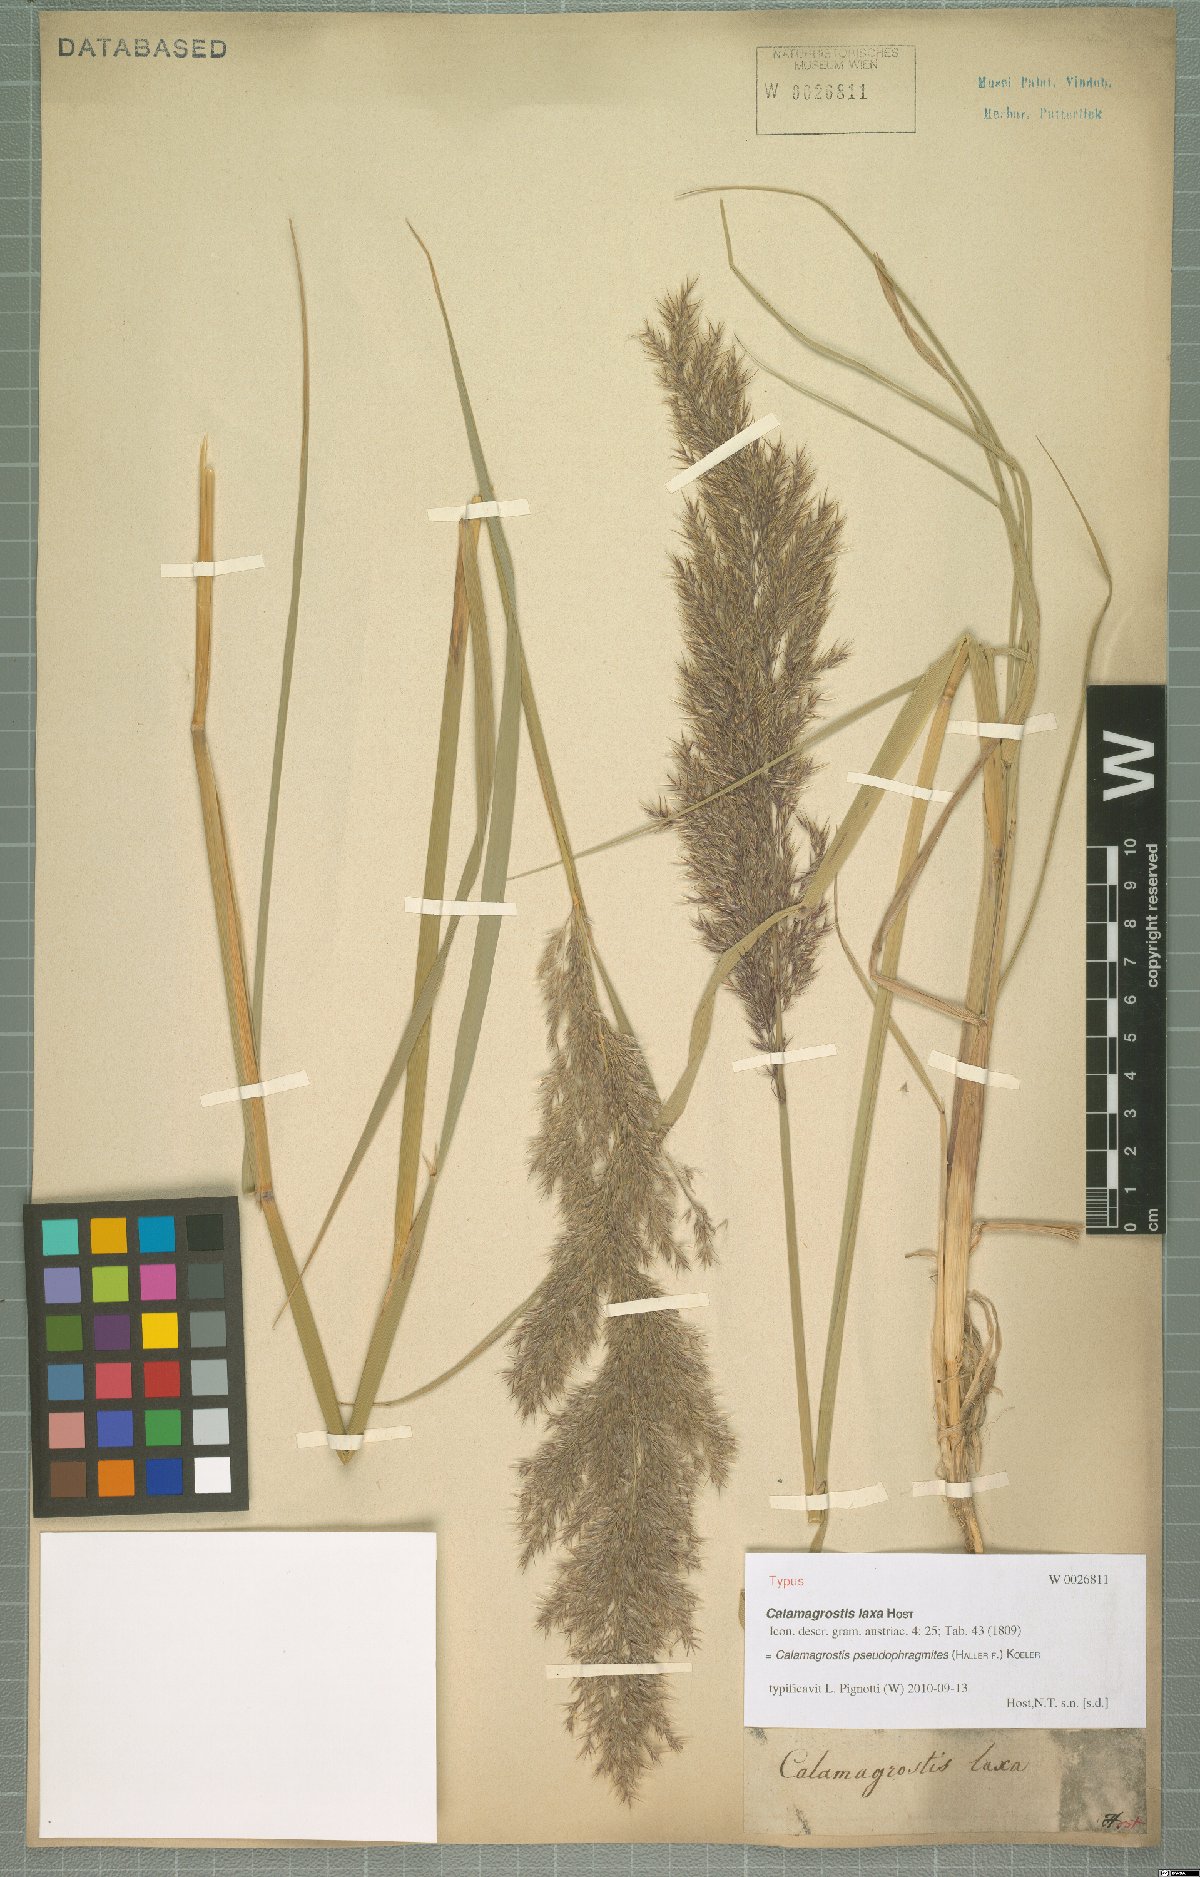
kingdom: Plantae
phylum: Tracheophyta
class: Liliopsida
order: Poales
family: Poaceae
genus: Calamagrostis
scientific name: Calamagrostis pseudophragmites
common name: Coastal small-reed
